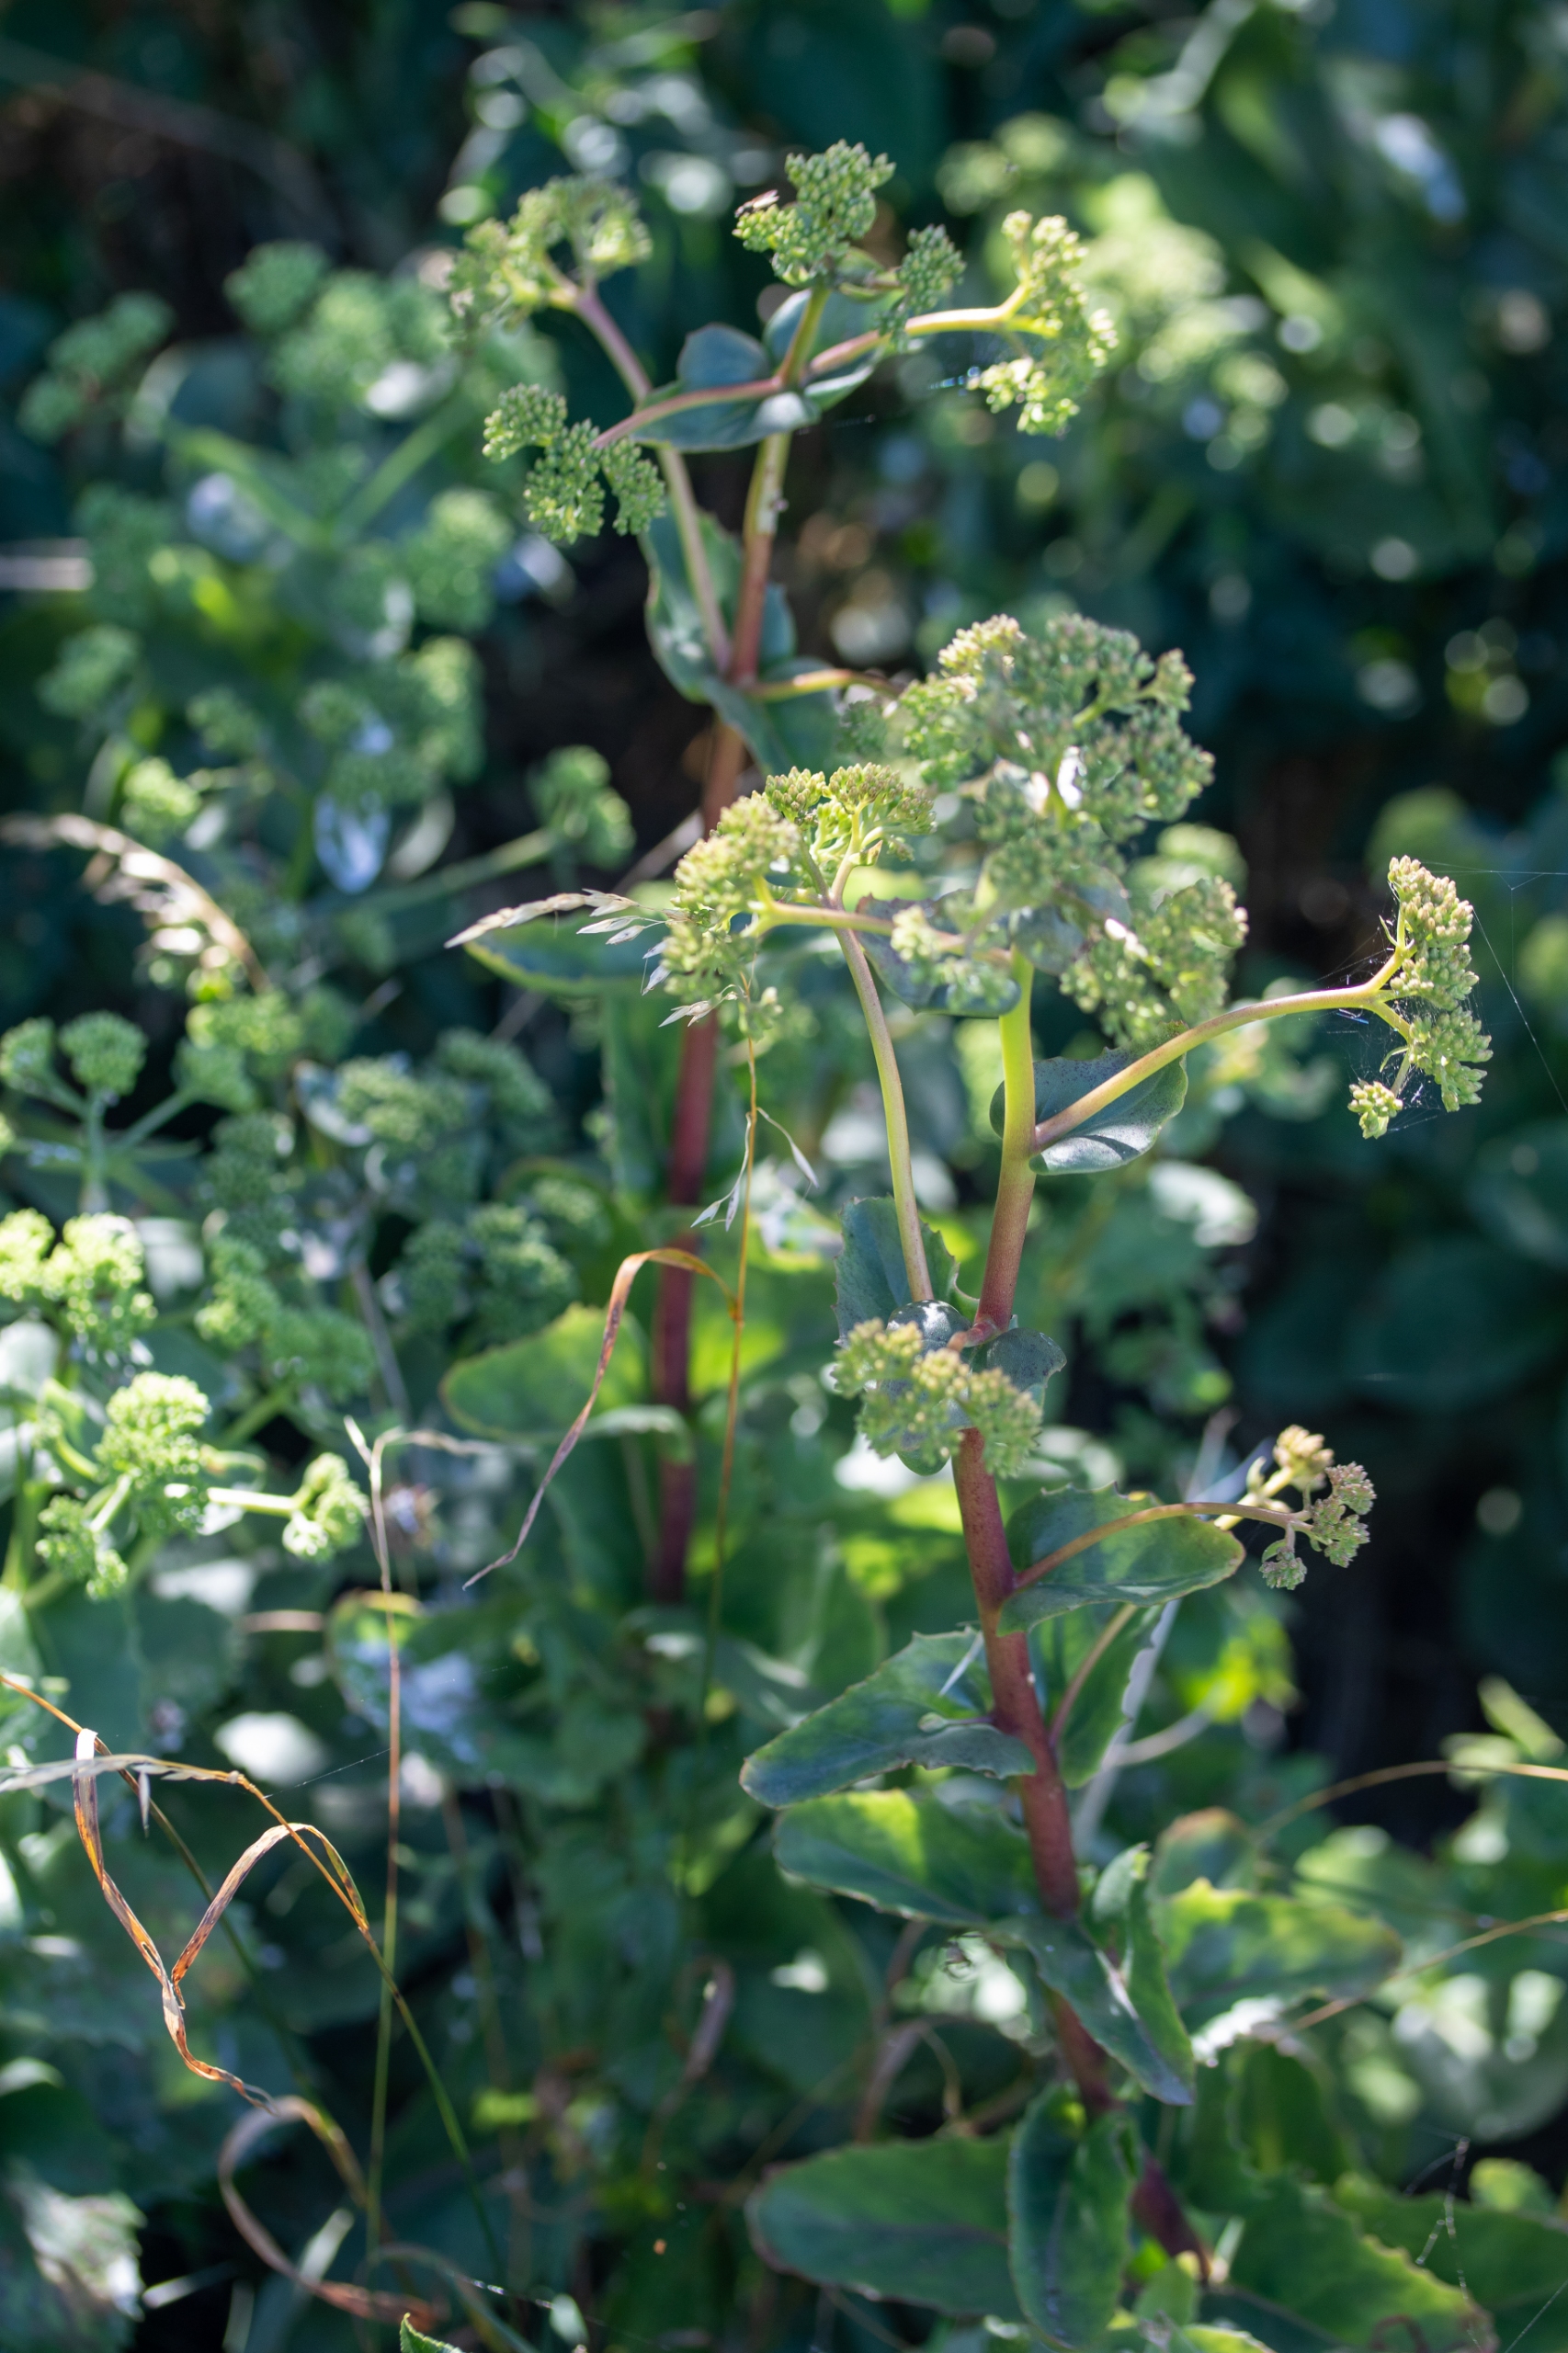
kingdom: Plantae
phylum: Tracheophyta
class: Magnoliopsida
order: Saxifragales
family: Crassulaceae
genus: Hylotelephium
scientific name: Hylotelephium spectabile
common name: Kinesisk sankthansurt
